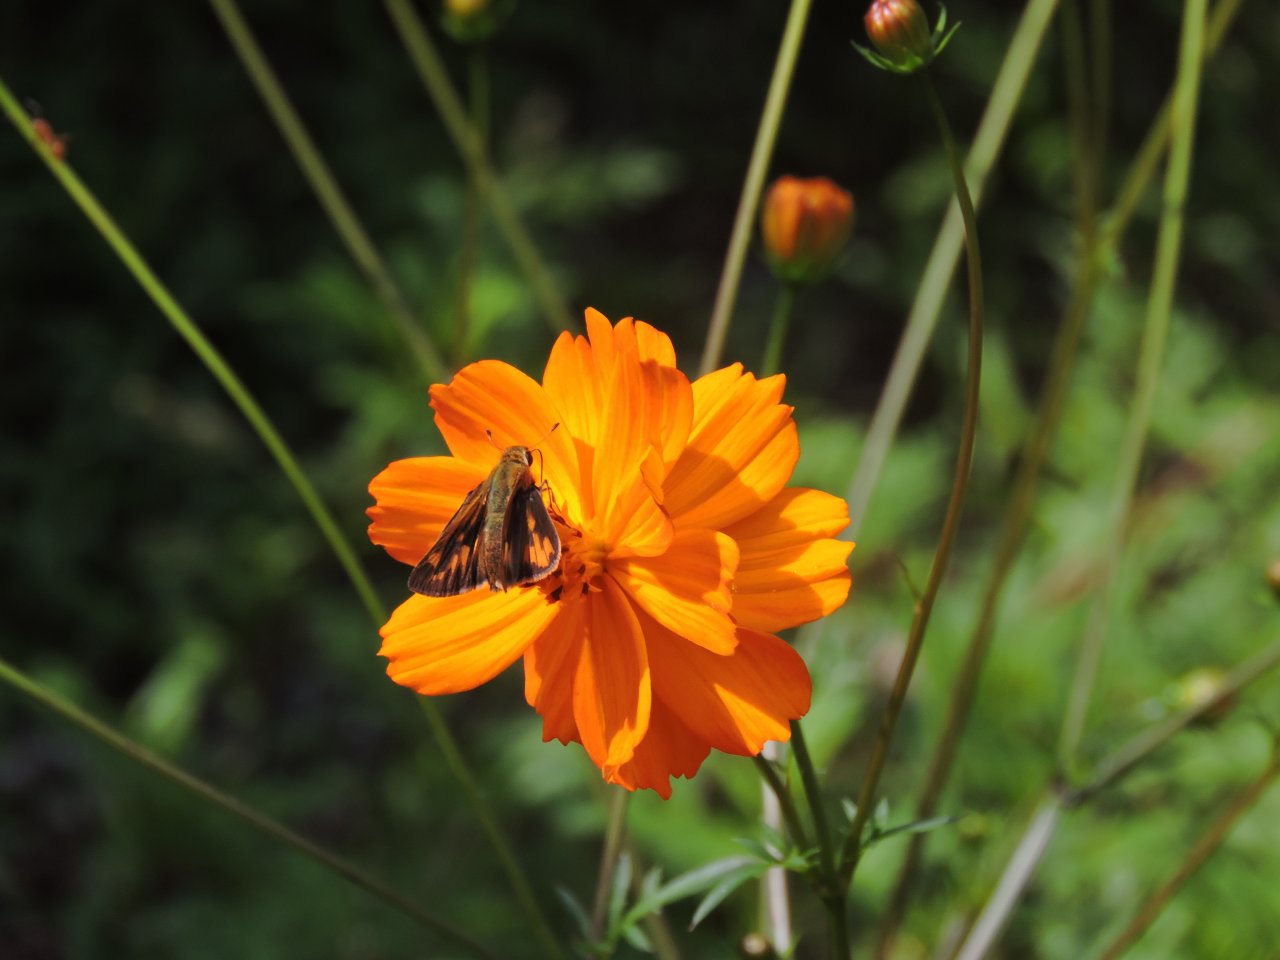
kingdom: Animalia
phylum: Arthropoda
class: Insecta
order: Lepidoptera
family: Hesperiidae
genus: Hylephila
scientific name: Hylephila phyleus
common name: Fiery Skipper
